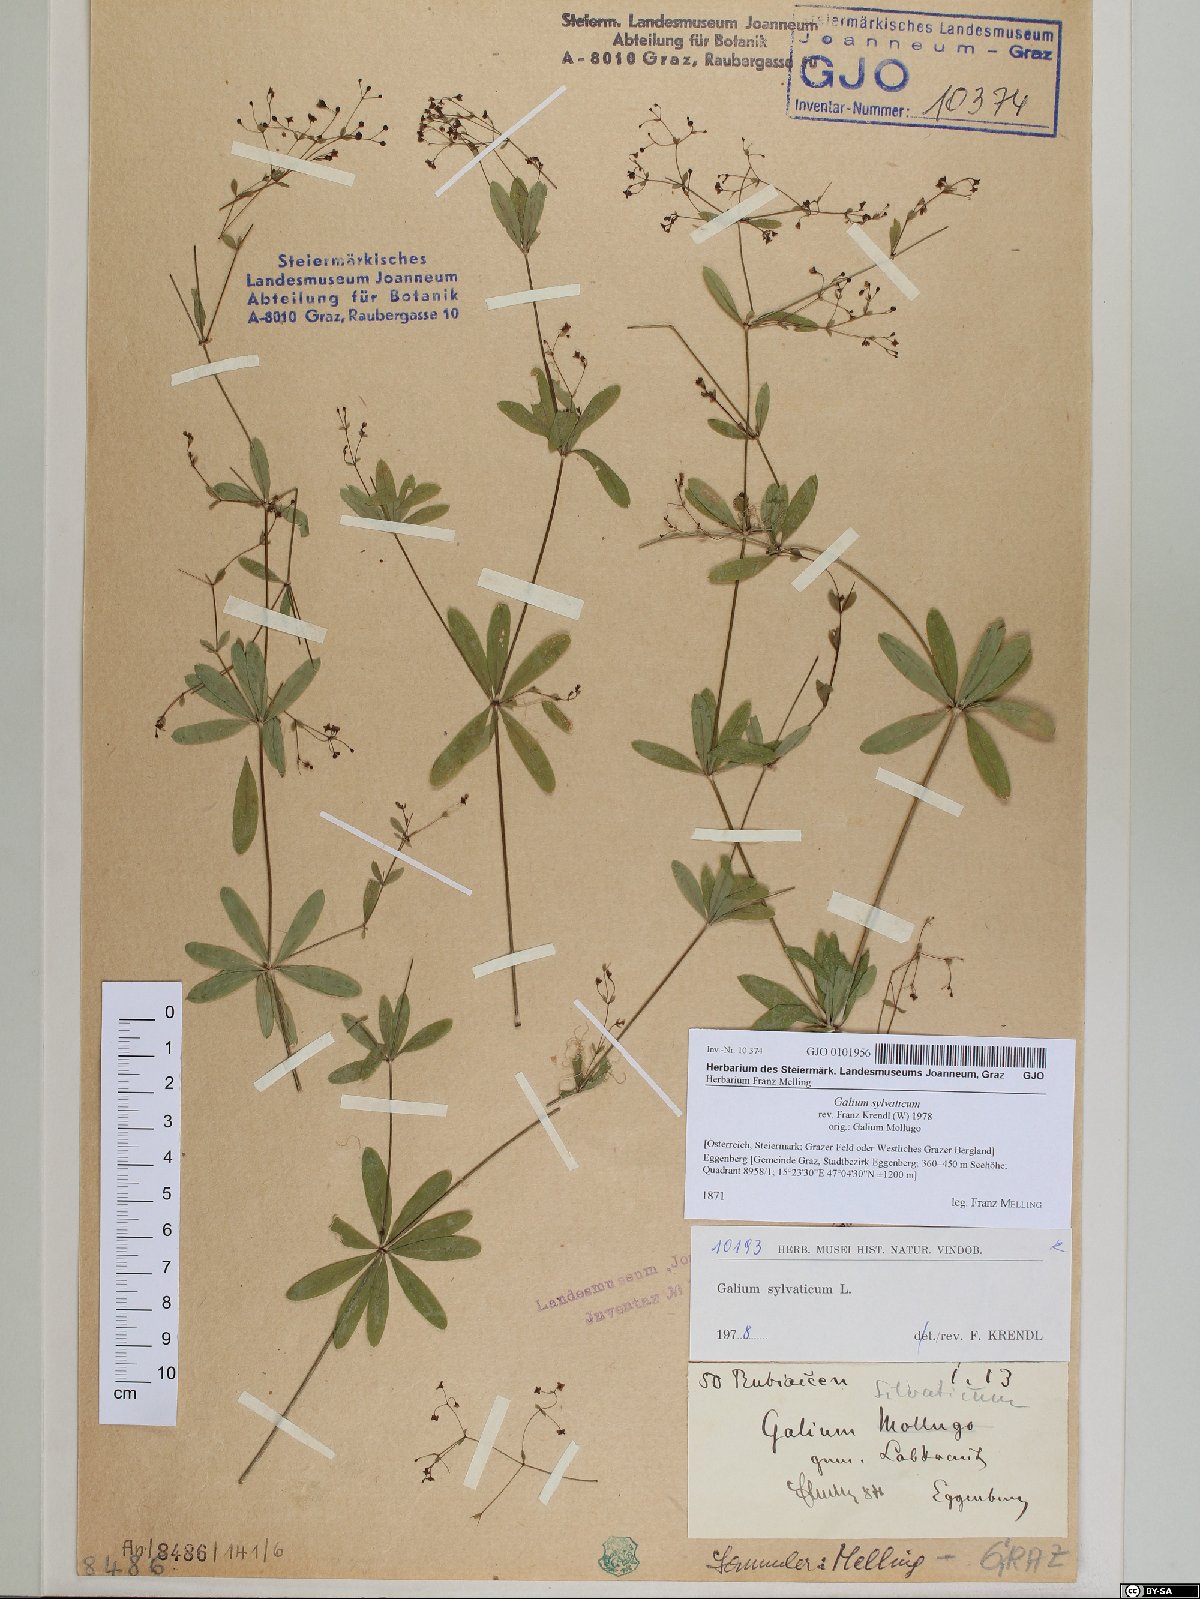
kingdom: Plantae
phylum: Tracheophyta
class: Magnoliopsida
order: Gentianales
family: Rubiaceae
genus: Galium
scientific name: Galium sylvaticum
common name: Wood bedstraw
